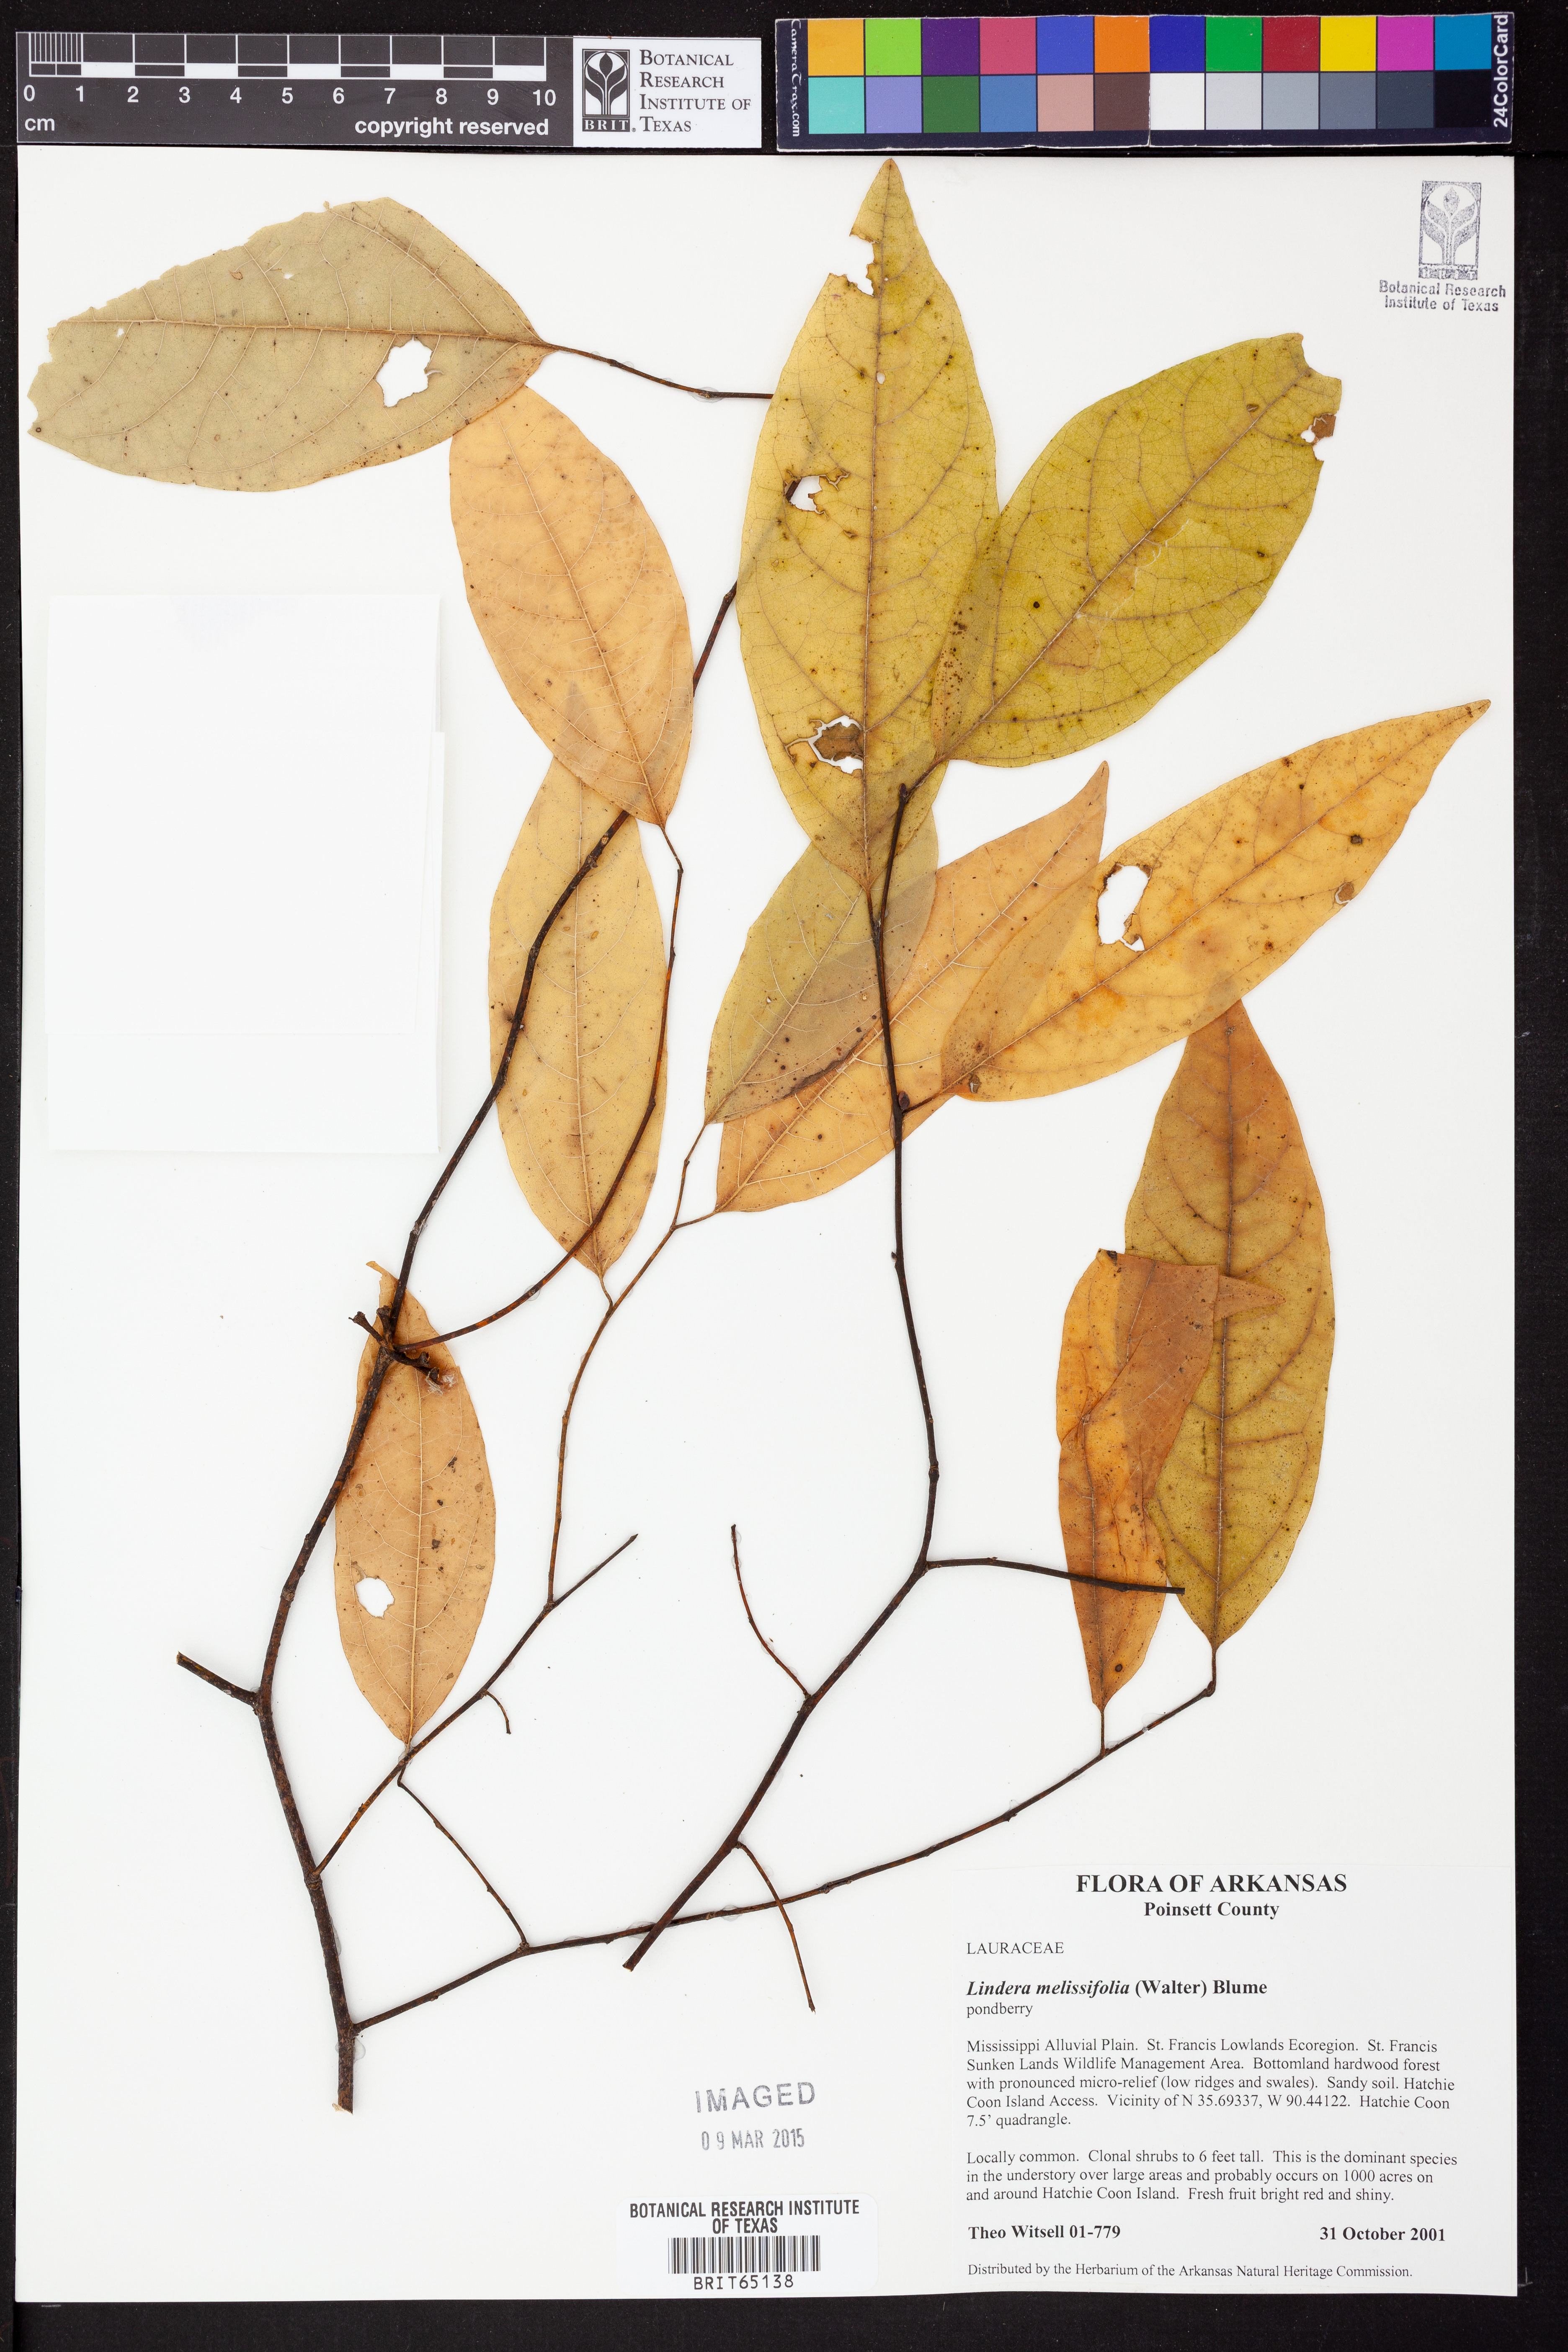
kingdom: Plantae
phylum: Tracheophyta
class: Magnoliopsida
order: Laurales
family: Lauraceae
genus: Lindera
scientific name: Lindera
